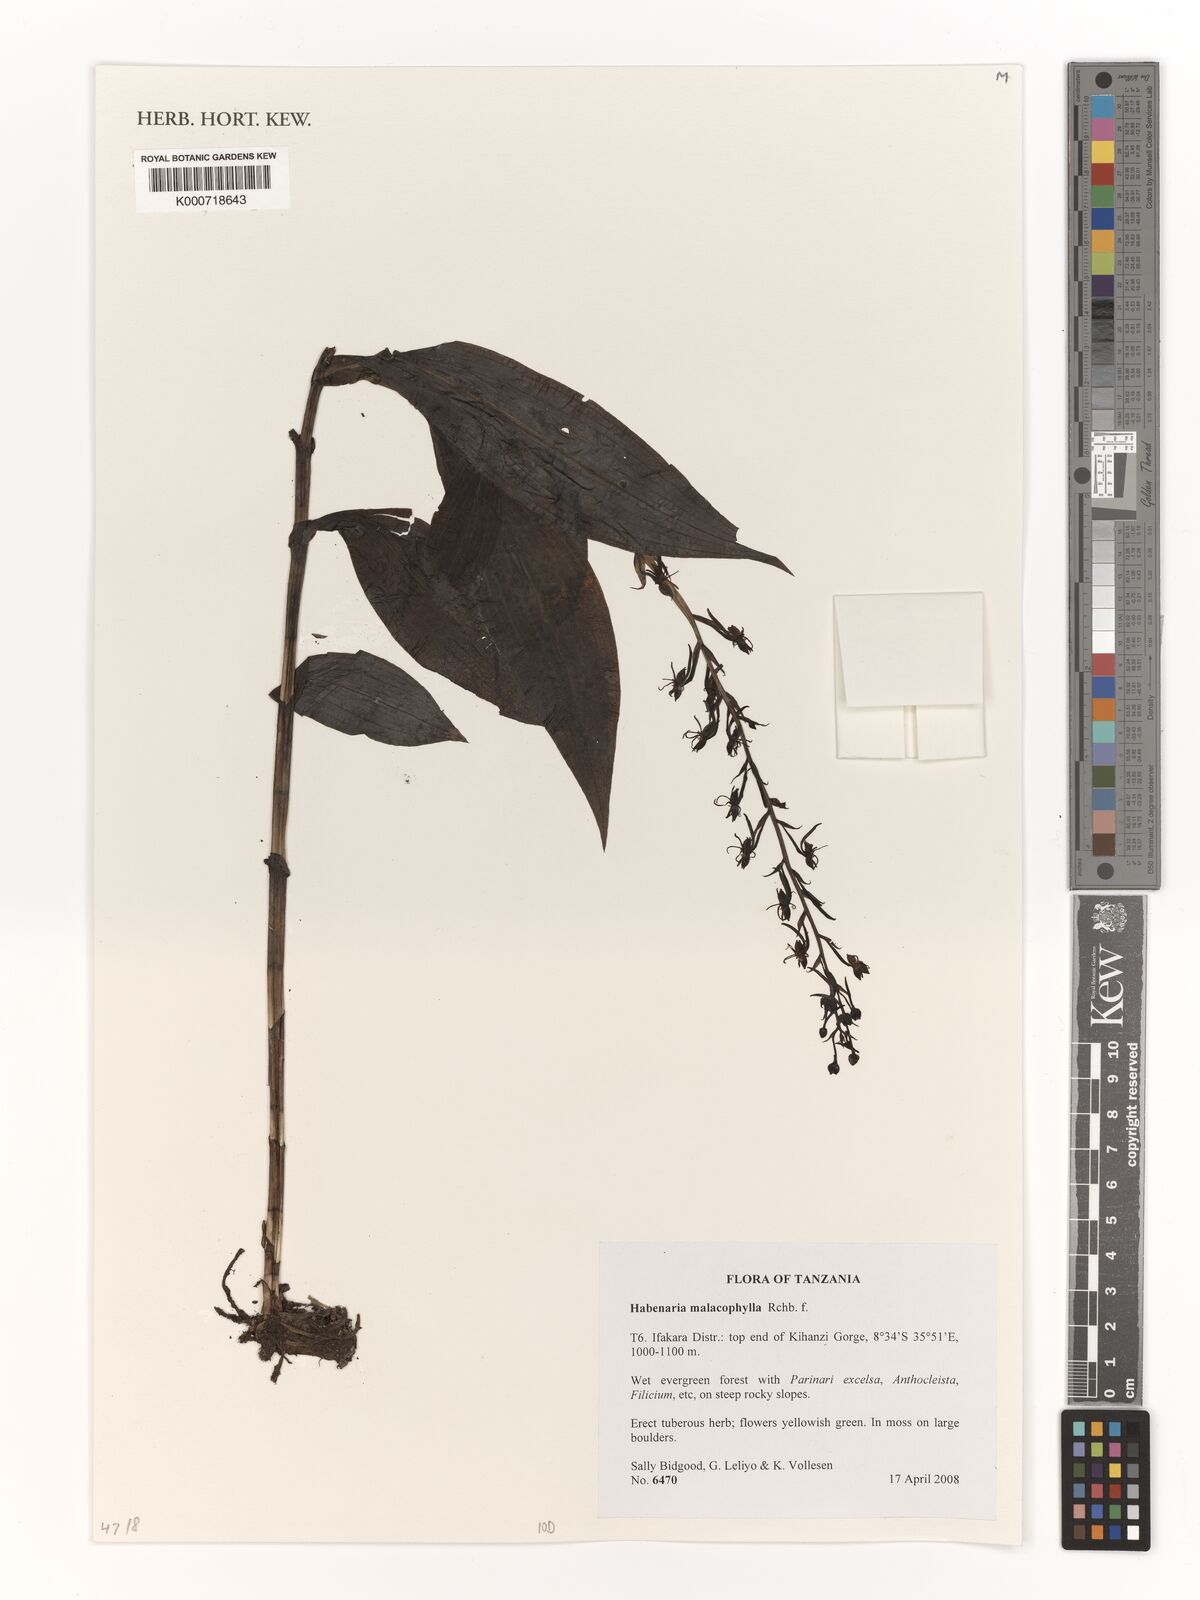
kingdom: Plantae
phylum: Tracheophyta
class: Liliopsida
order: Asparagales
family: Orchidaceae
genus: Habenaria
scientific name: Habenaria malacophylla
